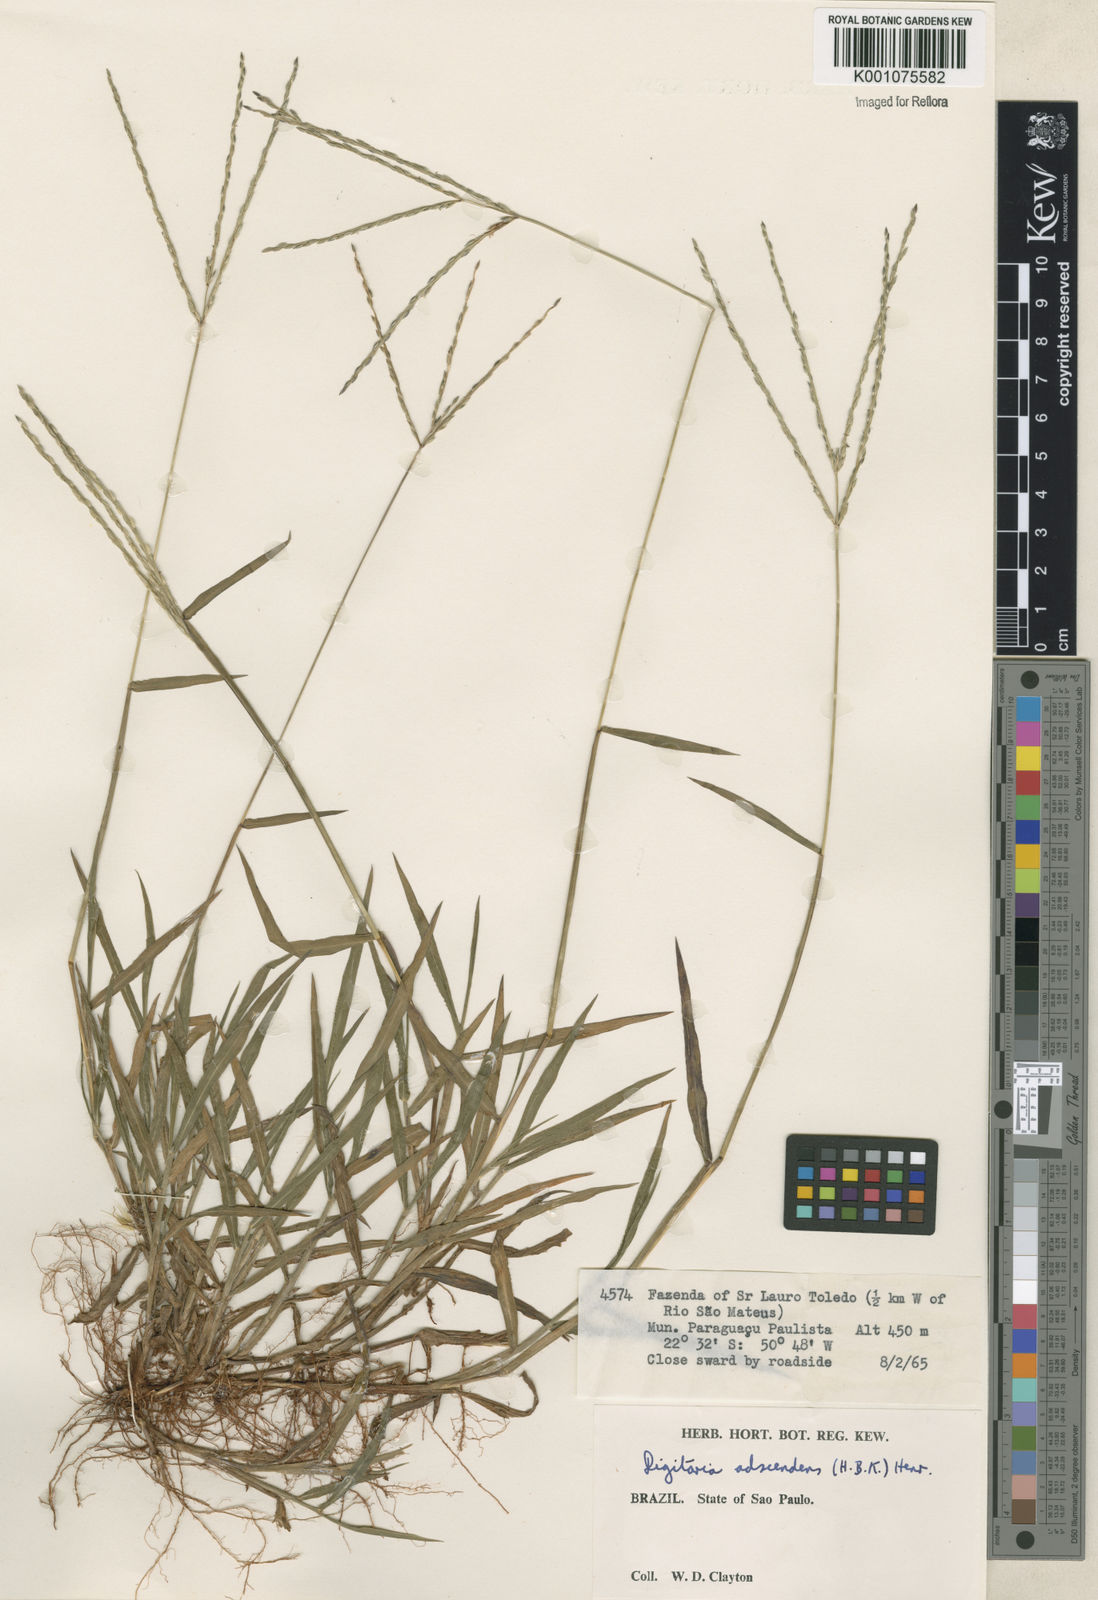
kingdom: Plantae
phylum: Tracheophyta
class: Liliopsida
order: Poales
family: Poaceae
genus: Digitaria
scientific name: Digitaria ciliaris
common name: Tropical finger-grass
